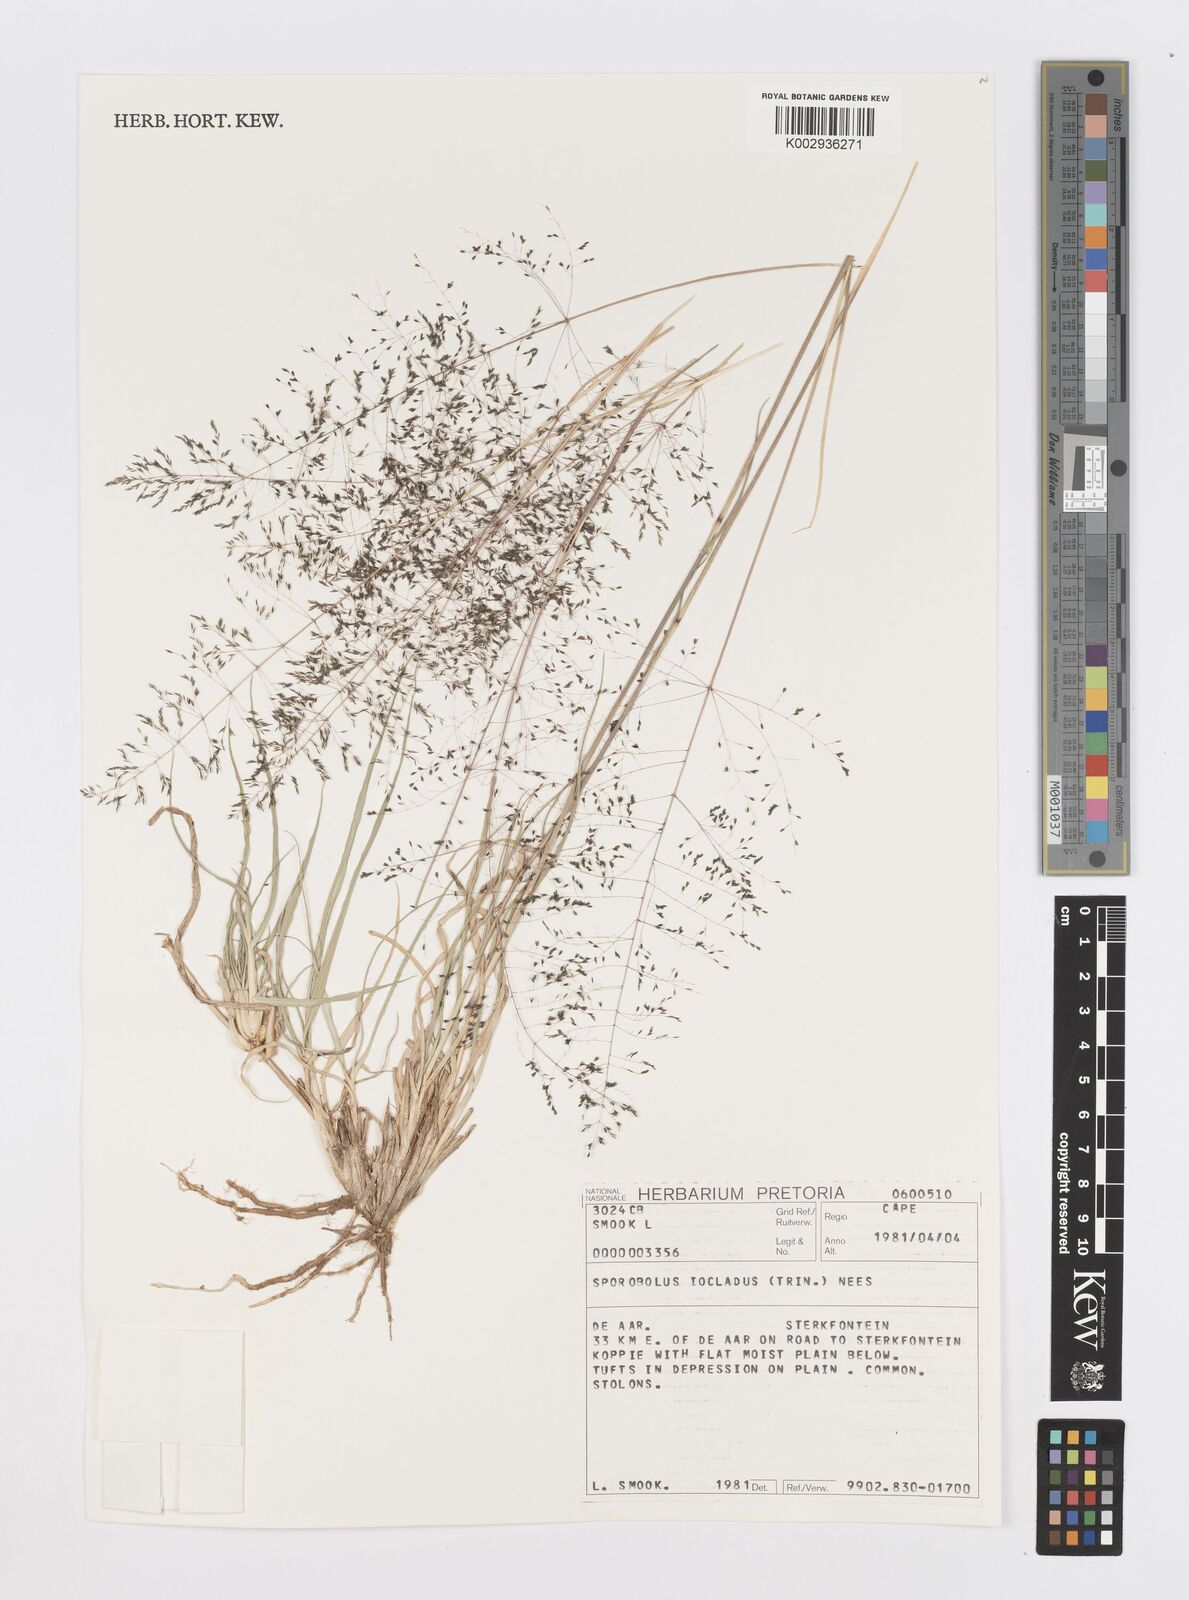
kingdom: Plantae
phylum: Tracheophyta
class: Liliopsida
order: Poales
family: Poaceae
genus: Sporobolus
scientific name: Sporobolus ioclados
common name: Pan dropseed
